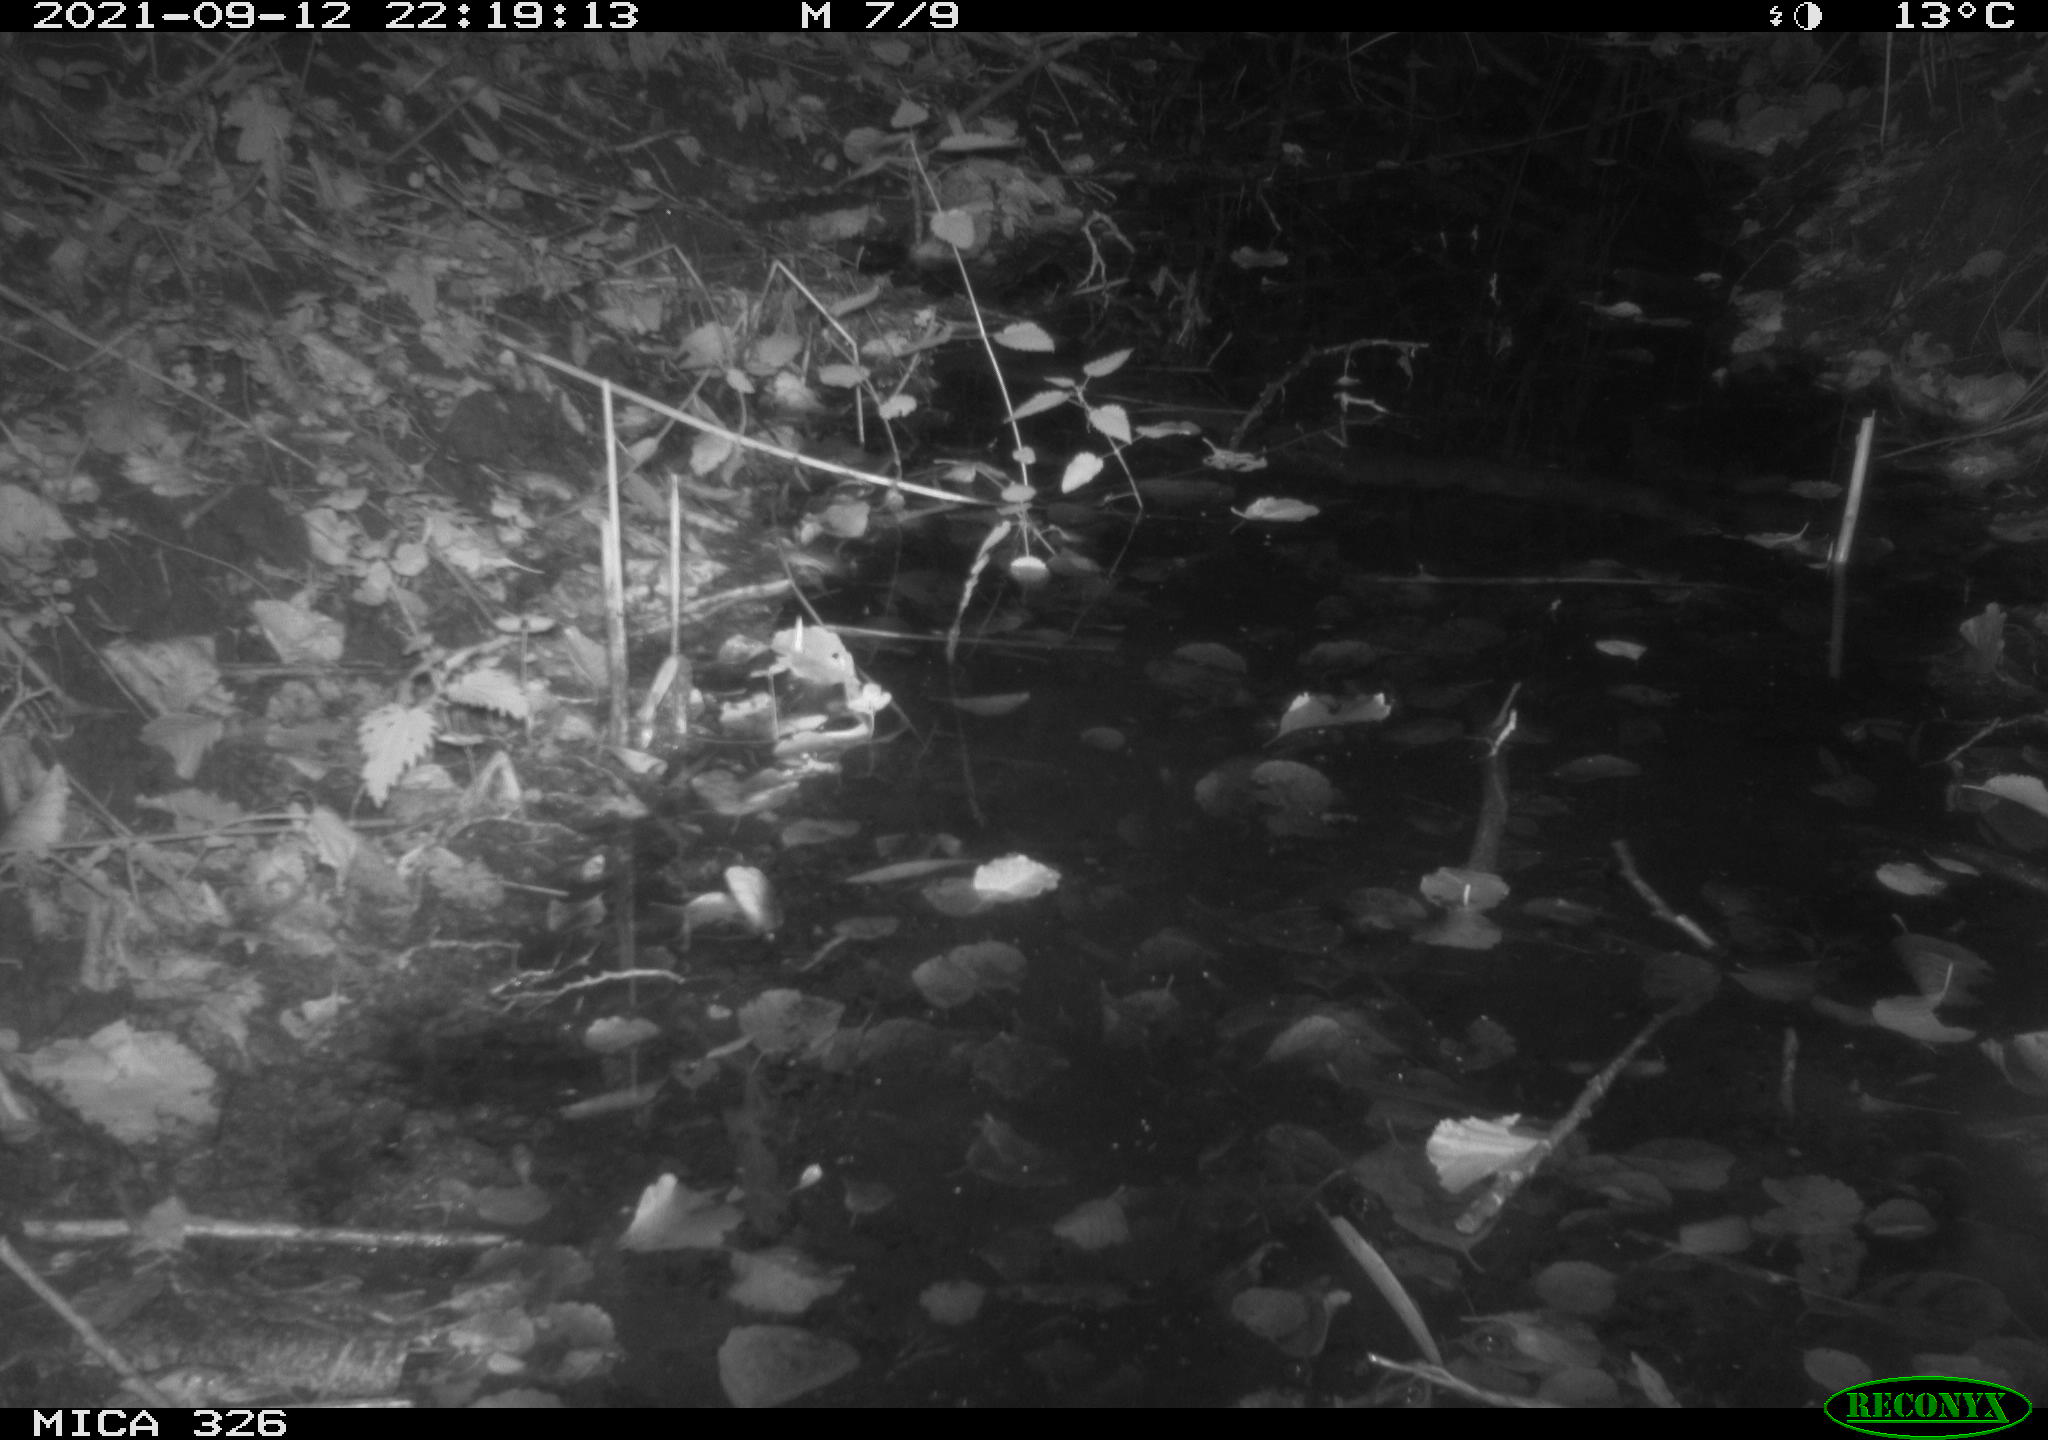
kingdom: Animalia
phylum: Chordata
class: Mammalia
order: Rodentia
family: Muridae
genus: Rattus
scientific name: Rattus norvegicus
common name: Brown rat
